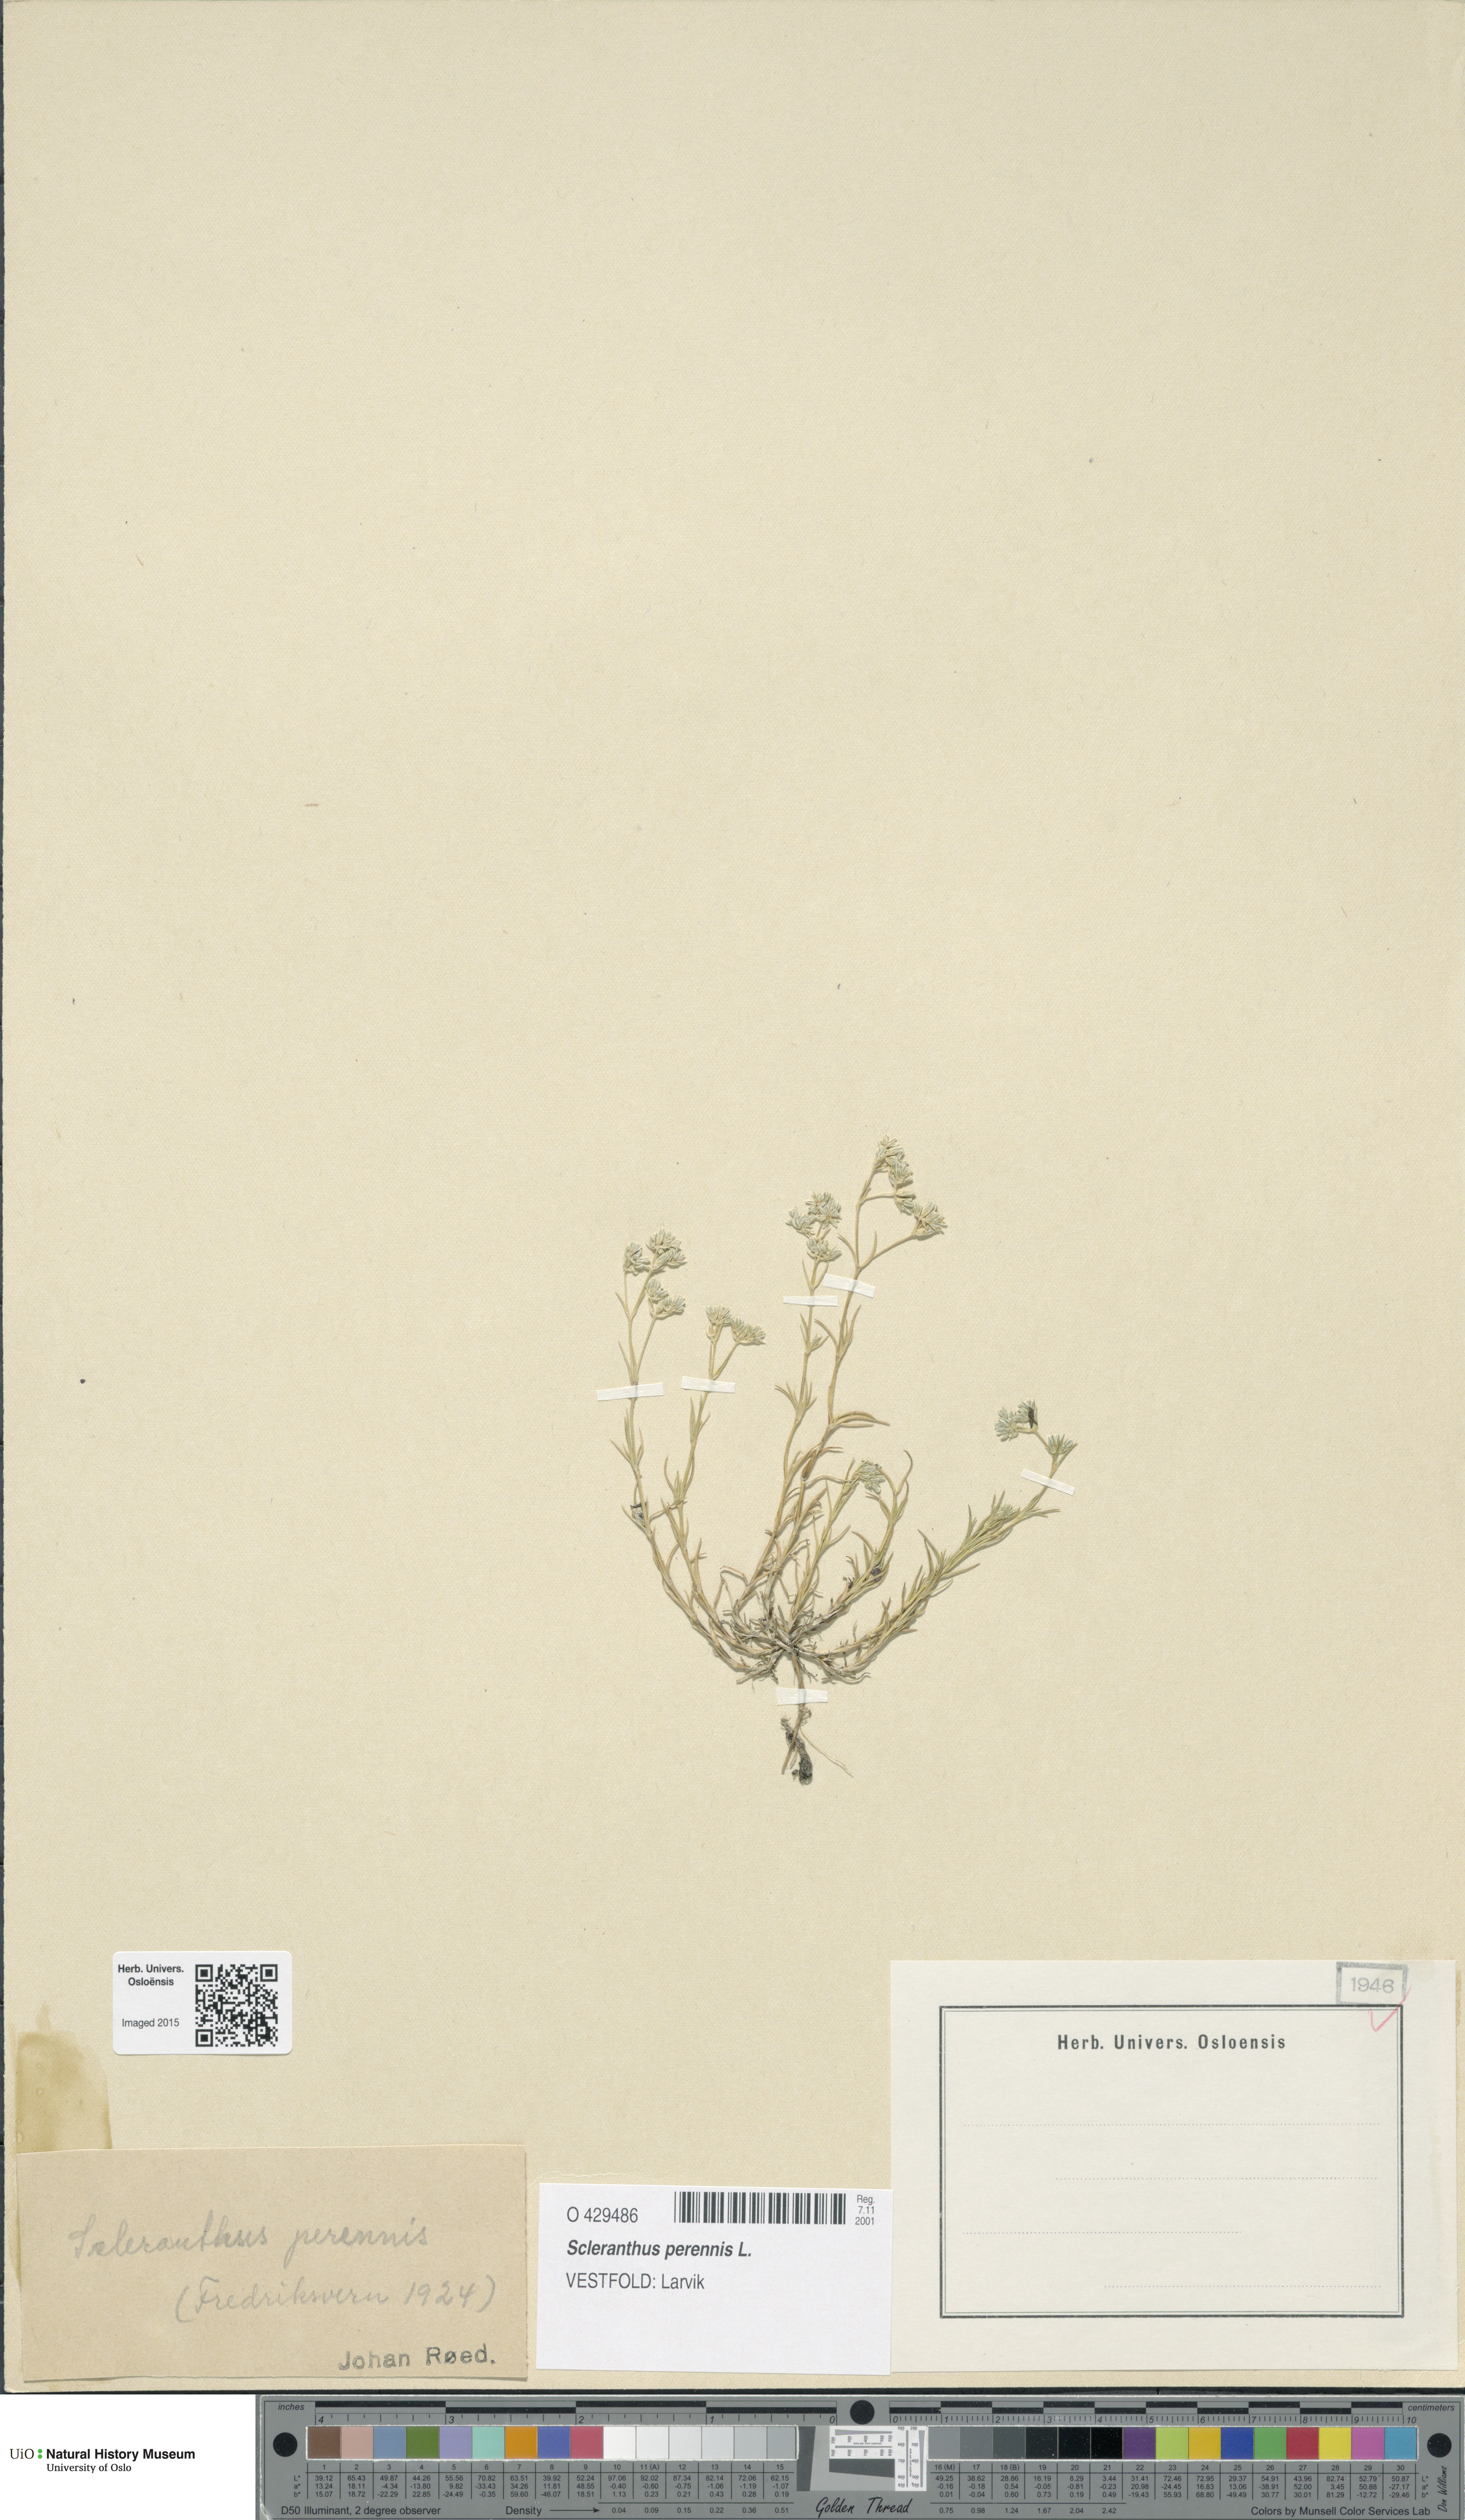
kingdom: Plantae
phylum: Tracheophyta
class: Magnoliopsida
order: Caryophyllales
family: Caryophyllaceae
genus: Scleranthus
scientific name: Scleranthus perennis
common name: Perennial knawel
